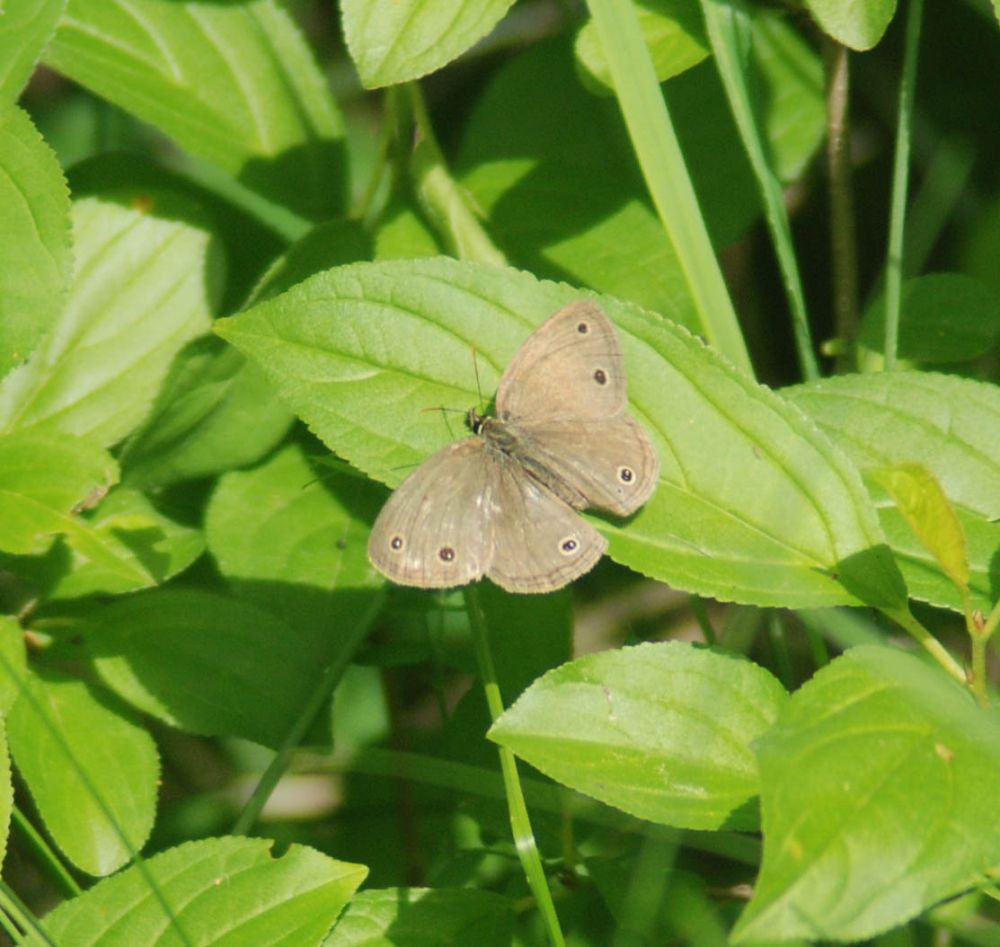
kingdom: Animalia
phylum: Arthropoda
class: Insecta
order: Lepidoptera
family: Nymphalidae
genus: Euptychia
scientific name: Euptychia cymela
